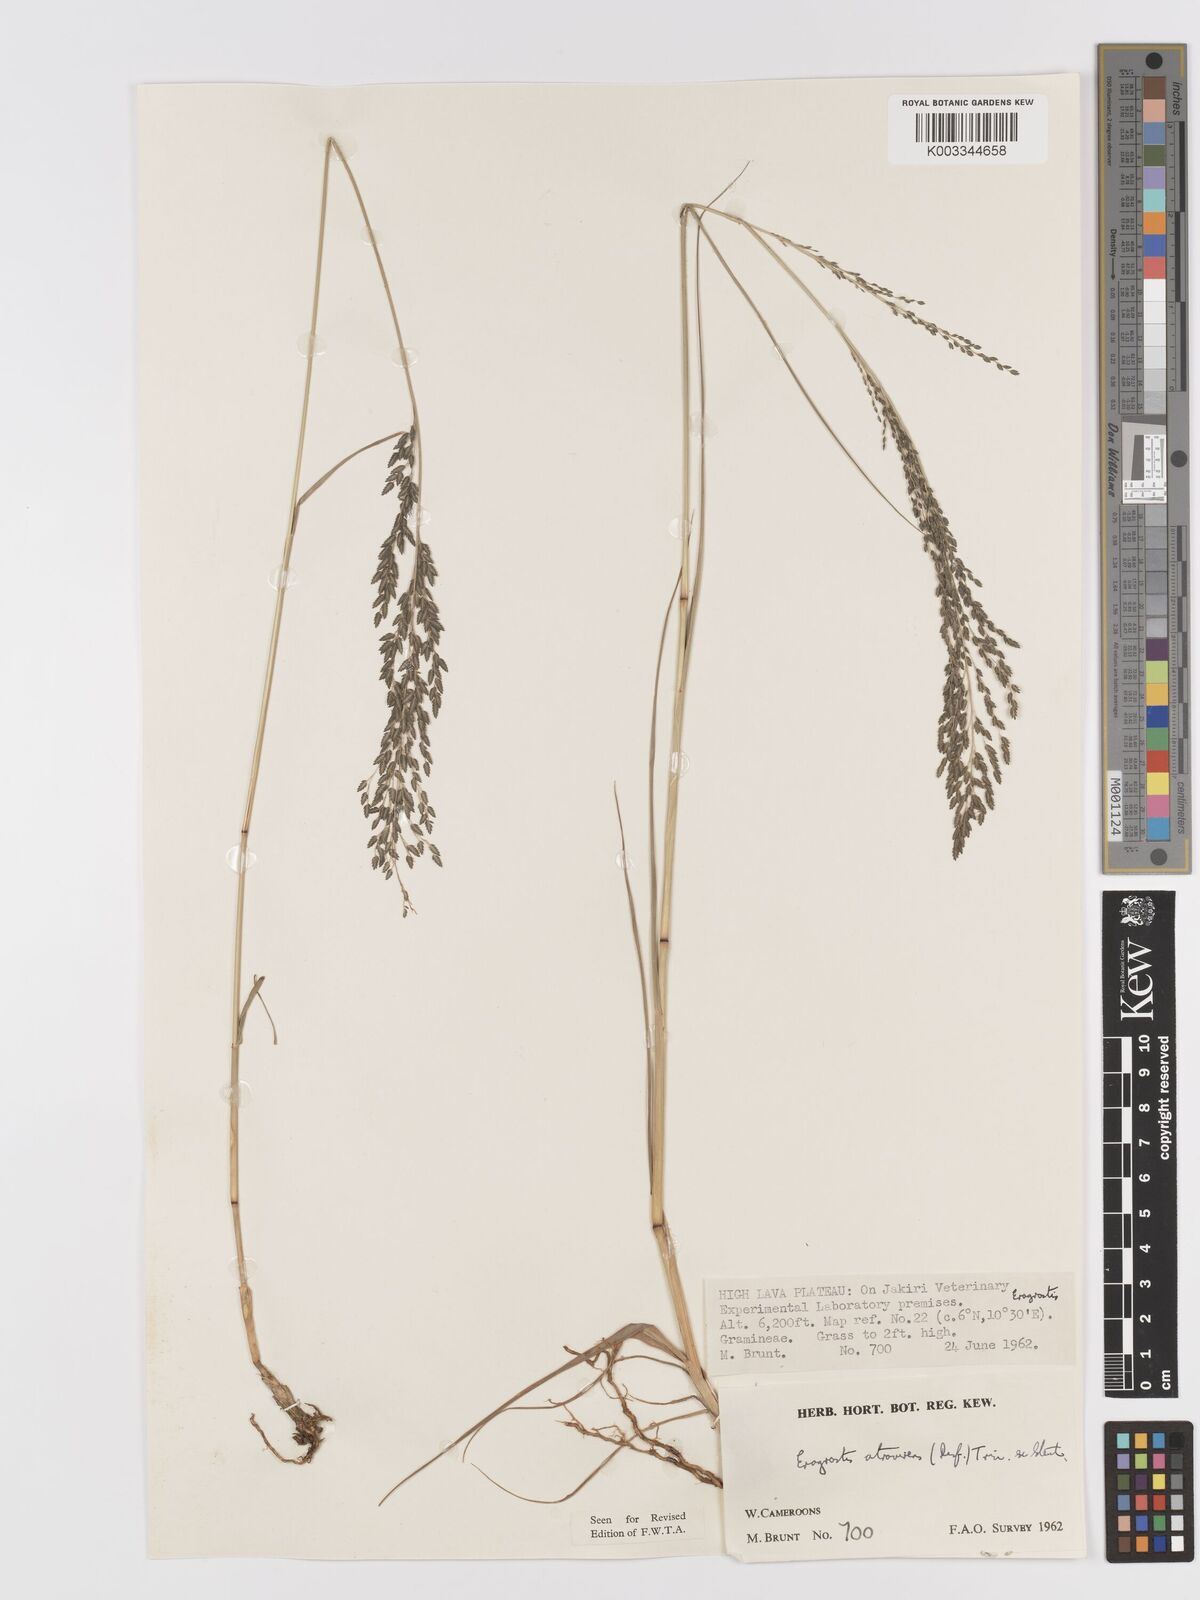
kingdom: Plantae
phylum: Tracheophyta
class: Liliopsida
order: Poales
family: Poaceae
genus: Eragrostis
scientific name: Eragrostis atrovirens
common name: Thalia lovegrass
